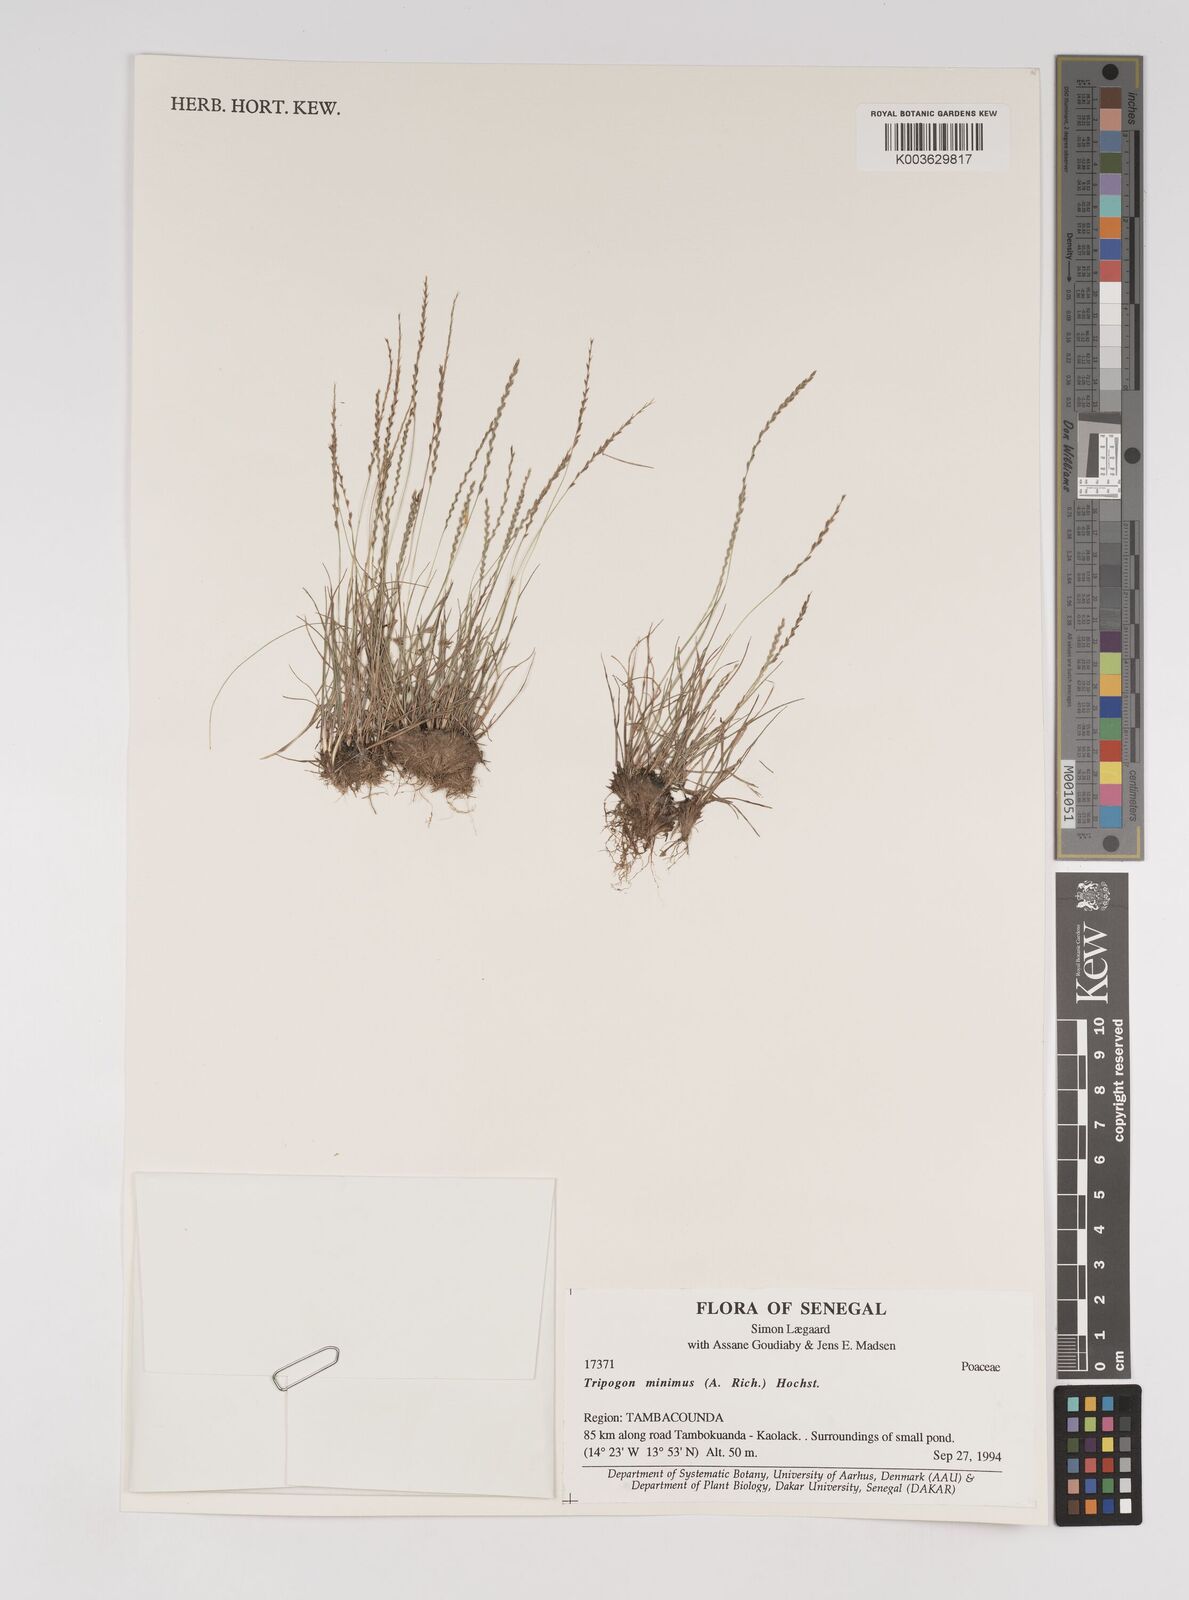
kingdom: Plantae
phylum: Tracheophyta
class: Liliopsida
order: Poales
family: Poaceae
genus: Tripogonella
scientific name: Tripogonella minima
